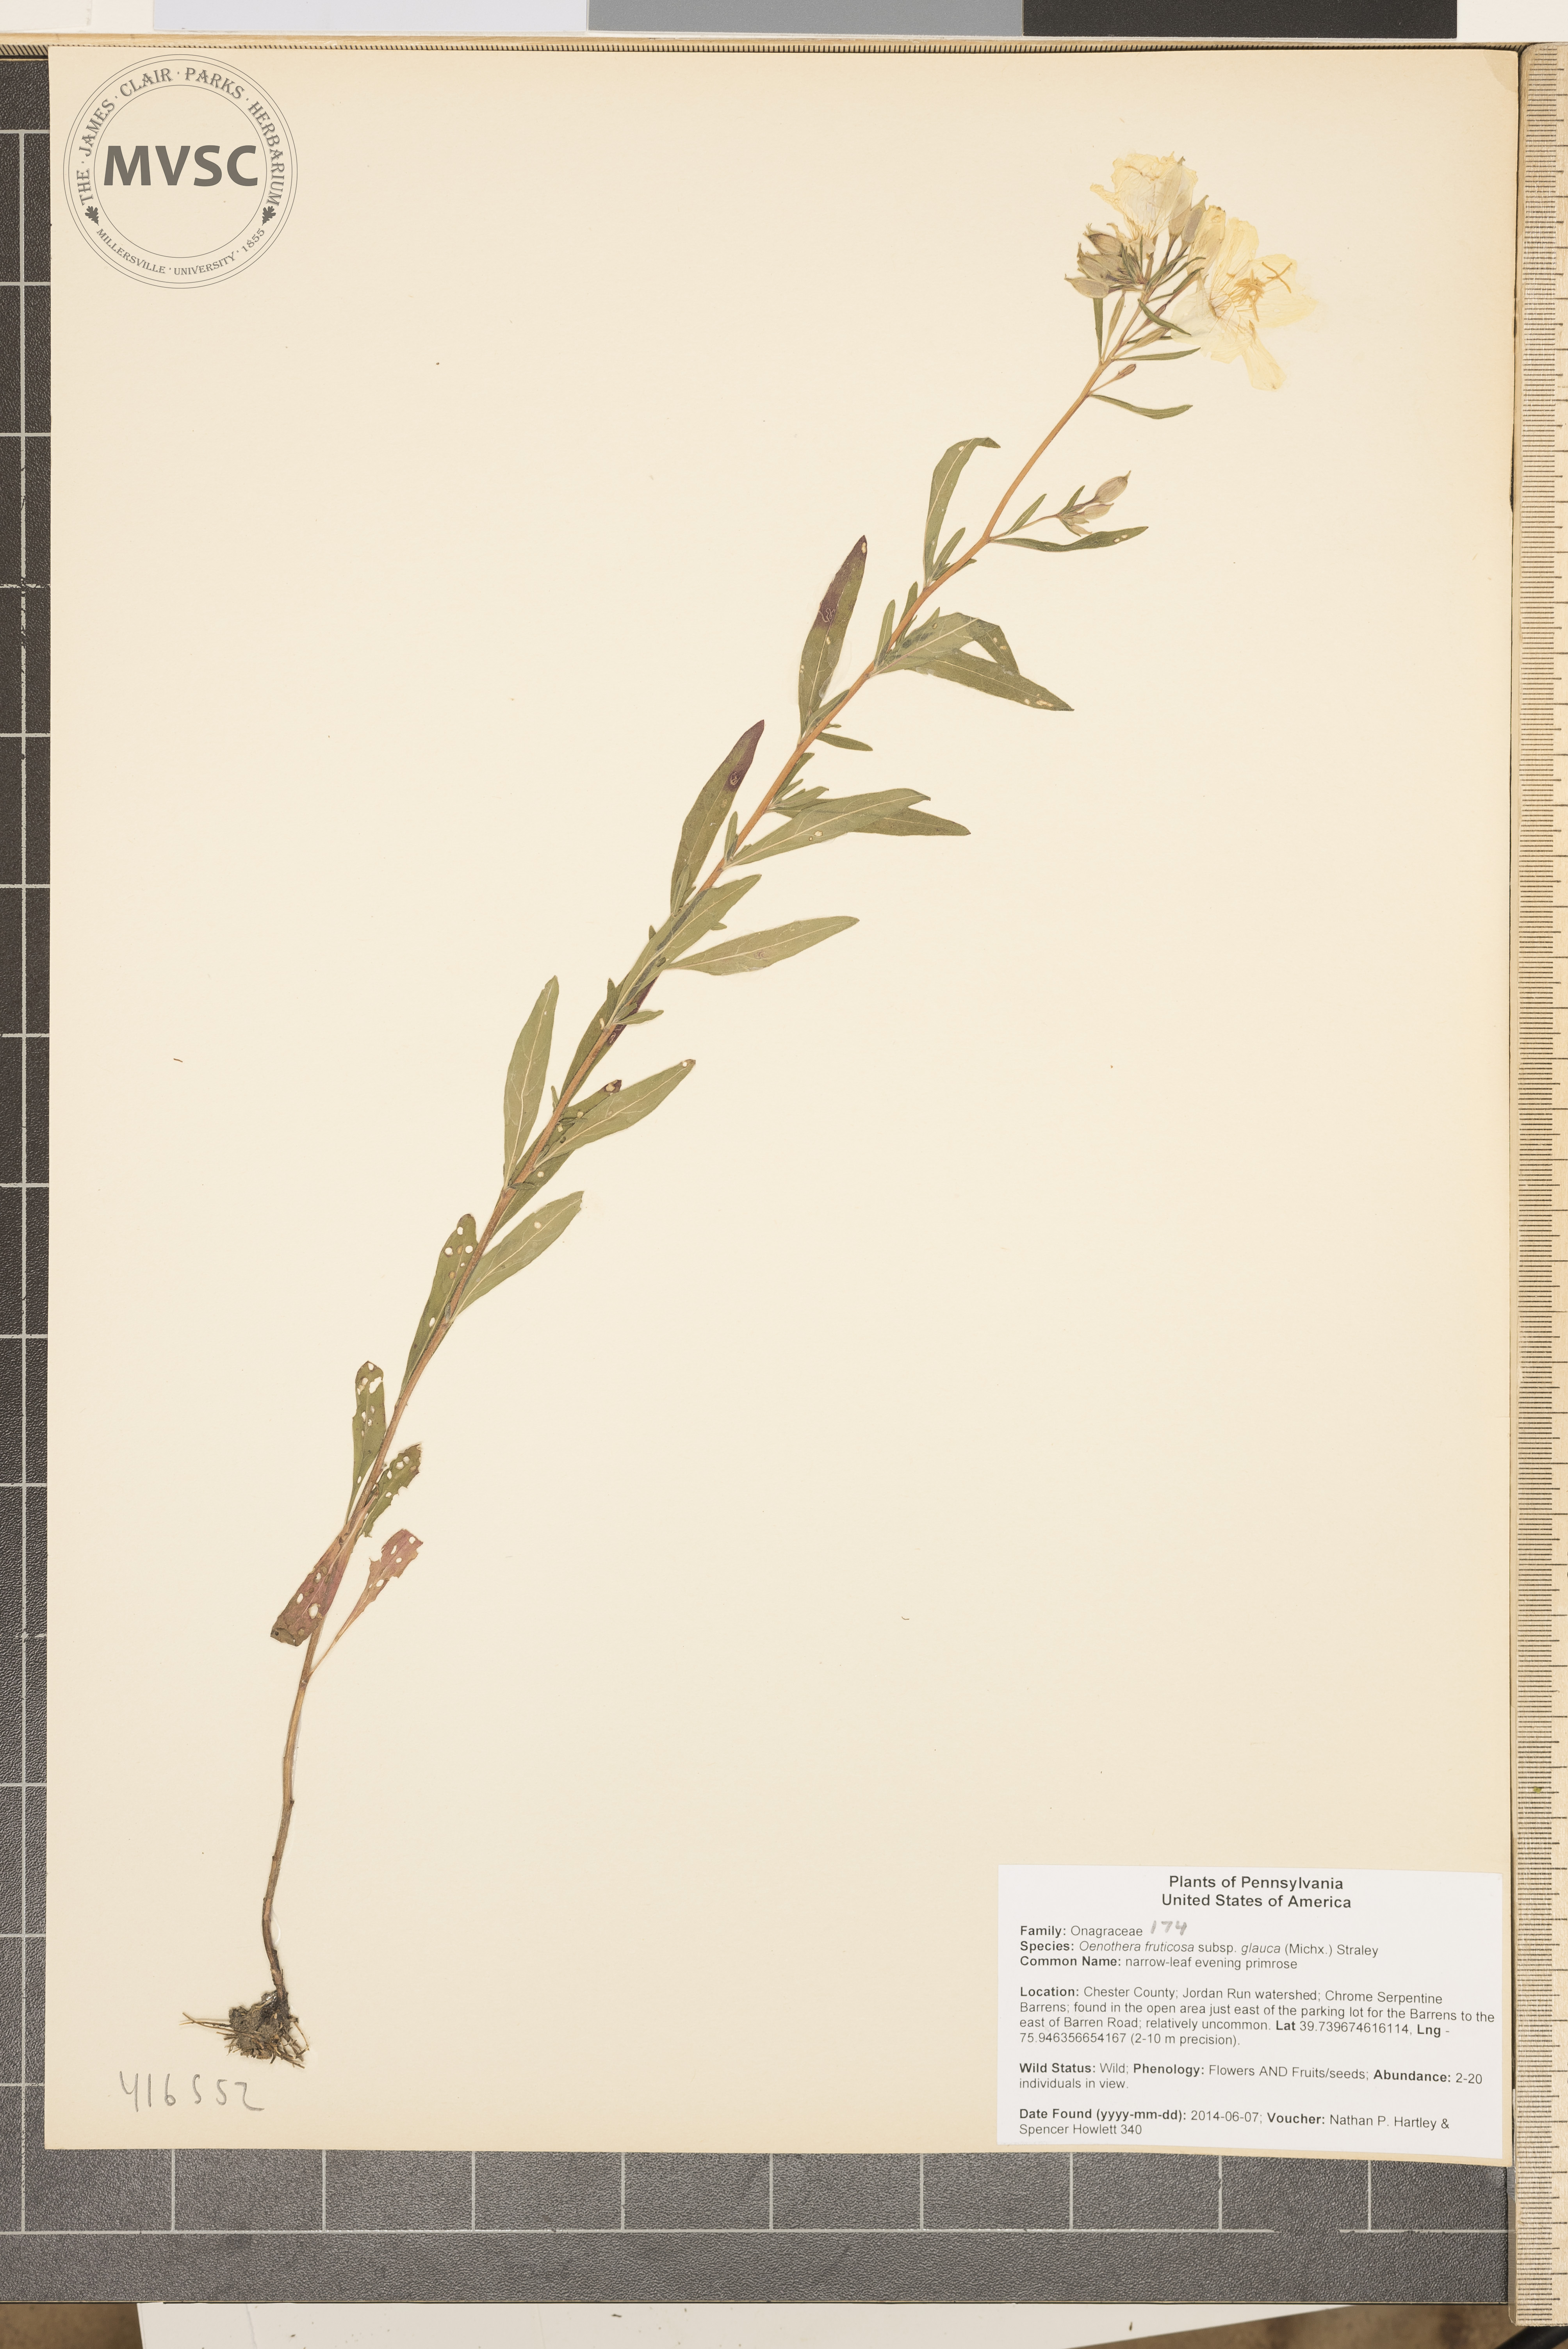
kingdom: Plantae
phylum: Tracheophyta
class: Magnoliopsida
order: Myrtales
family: Onagraceae
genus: Oenothera
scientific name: Oenothera fruticosa
